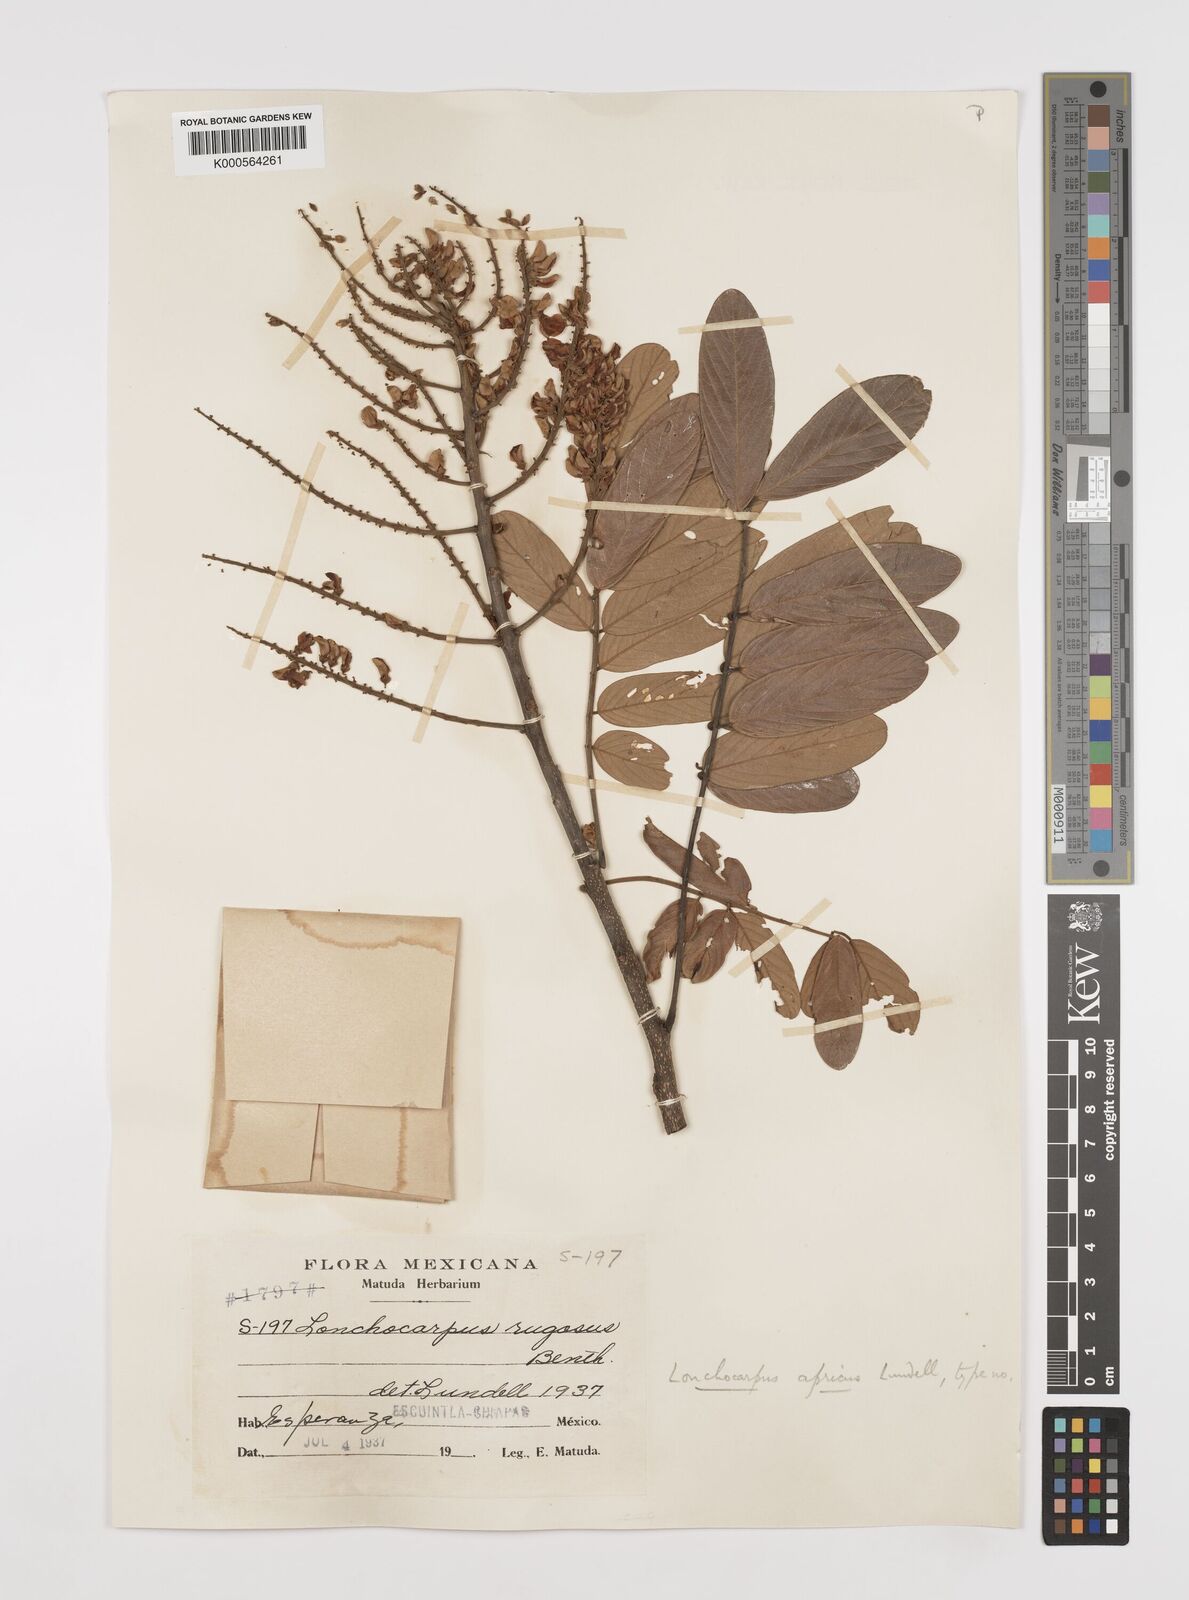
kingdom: Plantae
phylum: Tracheophyta
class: Magnoliopsida
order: Fabales
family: Fabaceae
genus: Lonchocarpus
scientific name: Lonchocarpus rugosus
